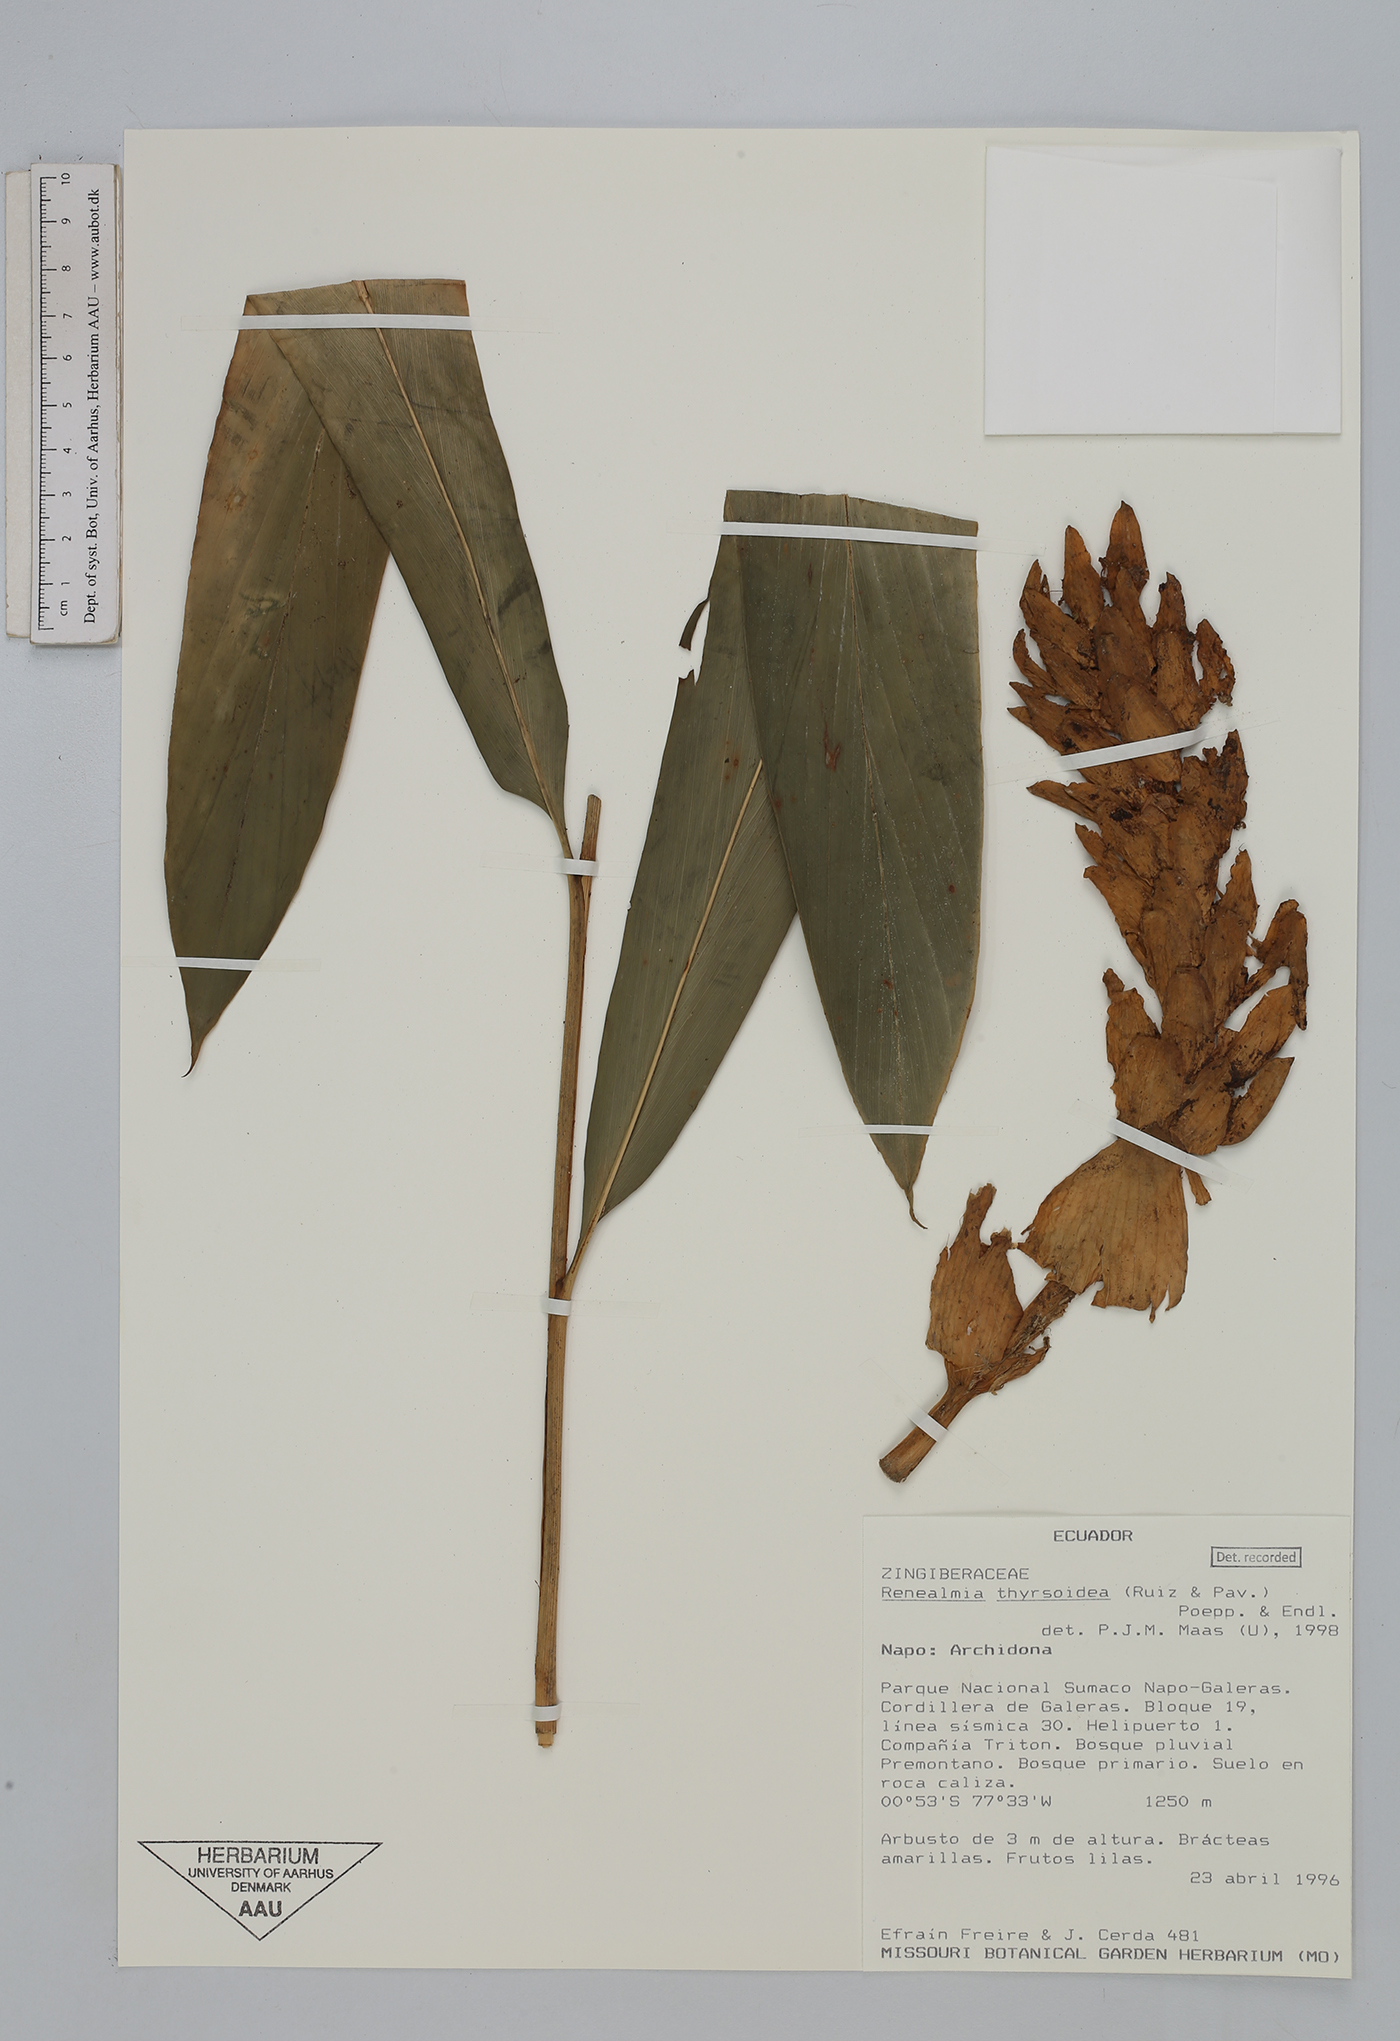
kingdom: Plantae
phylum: Tracheophyta
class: Liliopsida
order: Zingiberales
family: Zingiberaceae
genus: Renealmia
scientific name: Renealmia thyrsoidea
